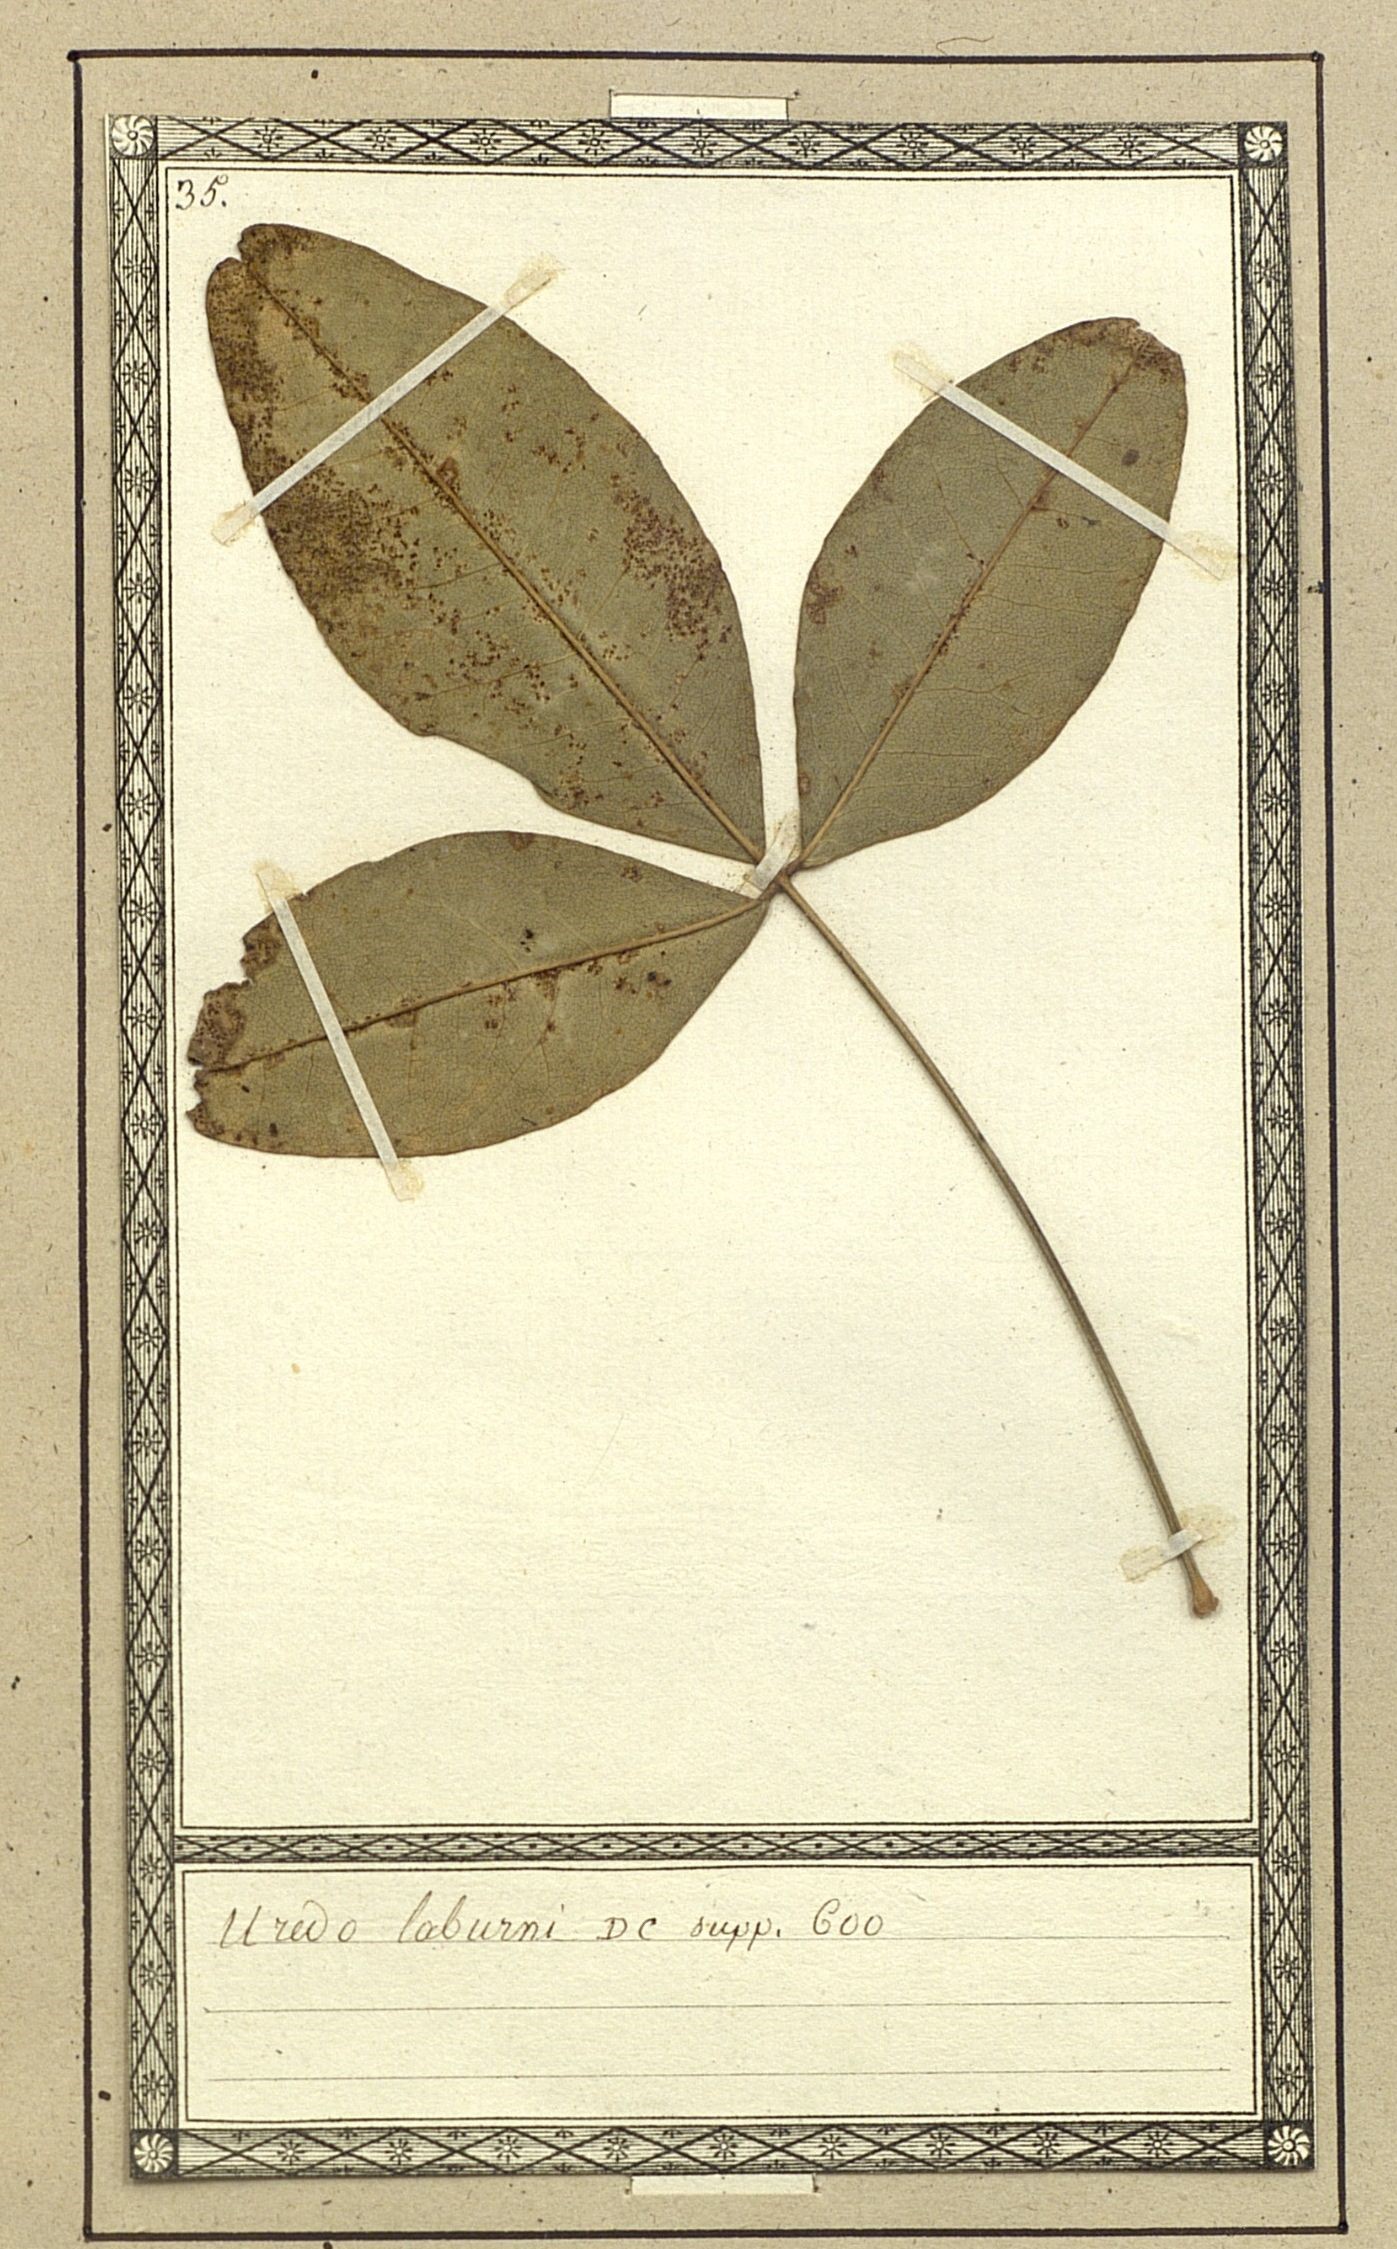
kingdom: Fungi
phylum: Basidiomycota
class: Pucciniomycetes
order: Pucciniales
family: Pucciniaceae
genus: Uredo
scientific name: Uredo
